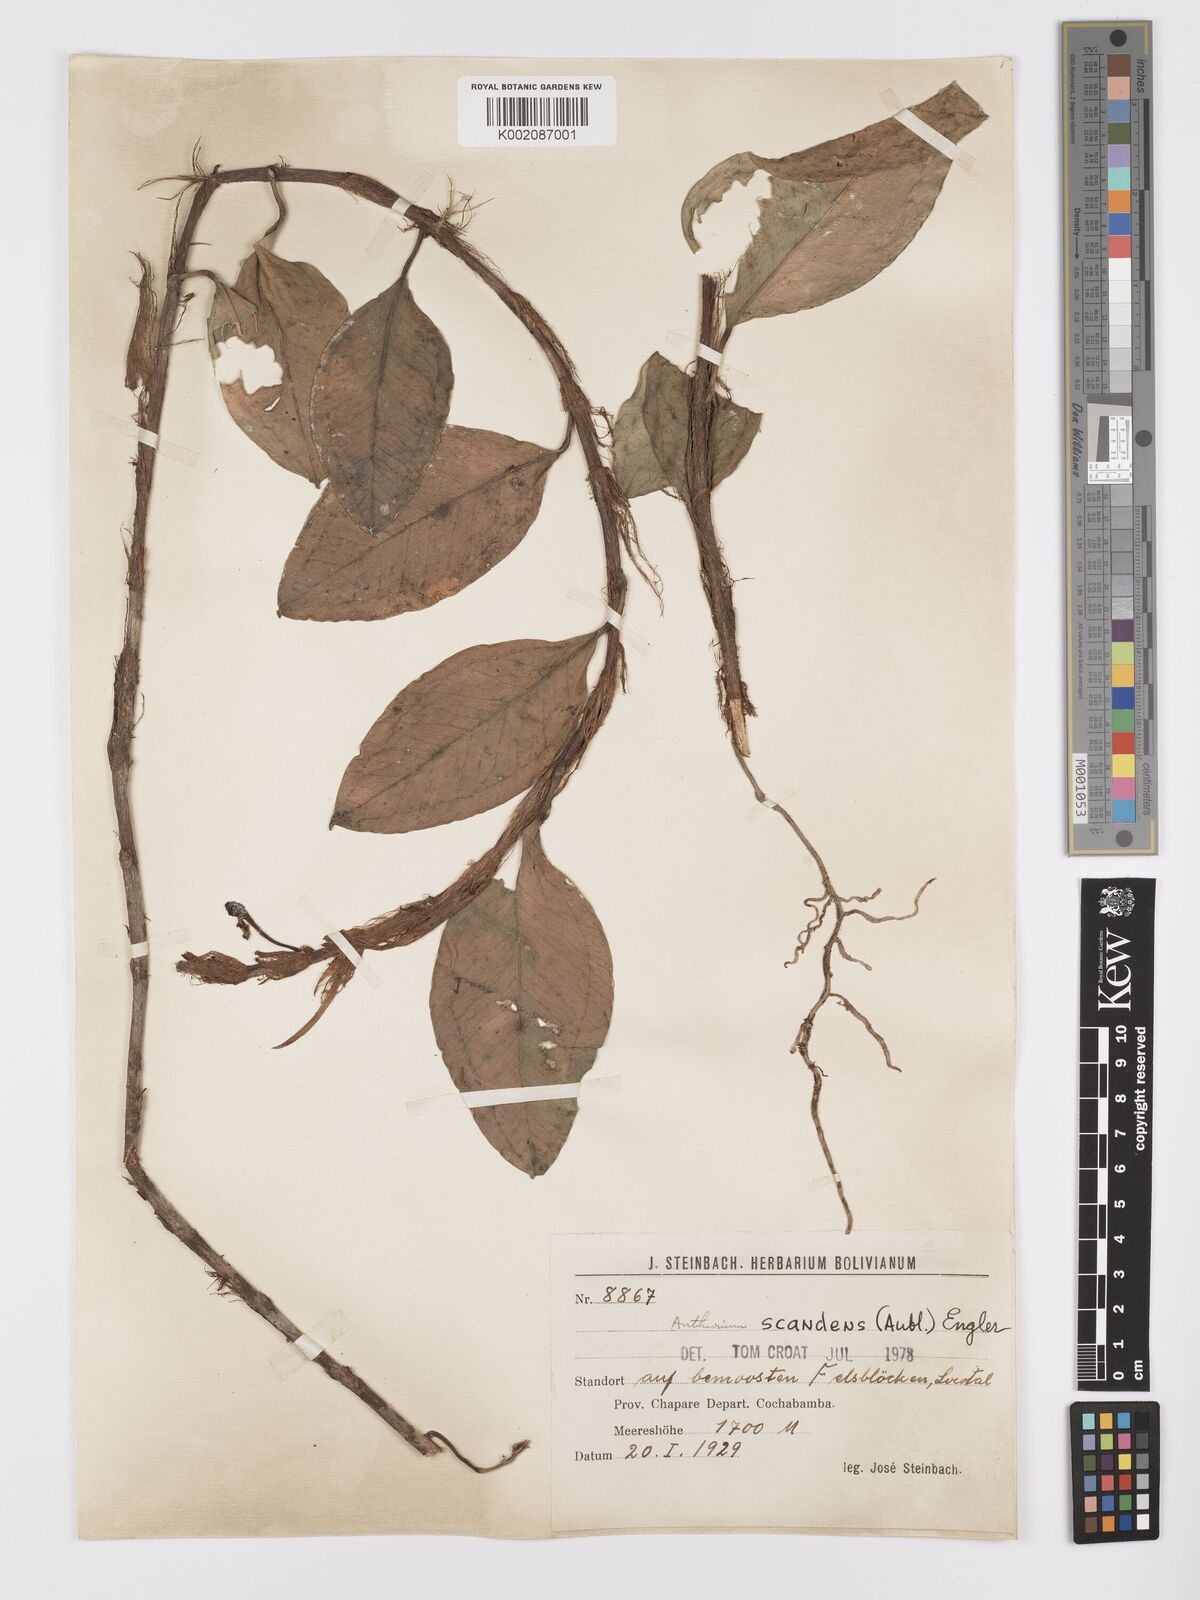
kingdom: Plantae
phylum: Tracheophyta
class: Liliopsida
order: Alismatales
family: Araceae
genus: Anthurium
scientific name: Anthurium scandens
